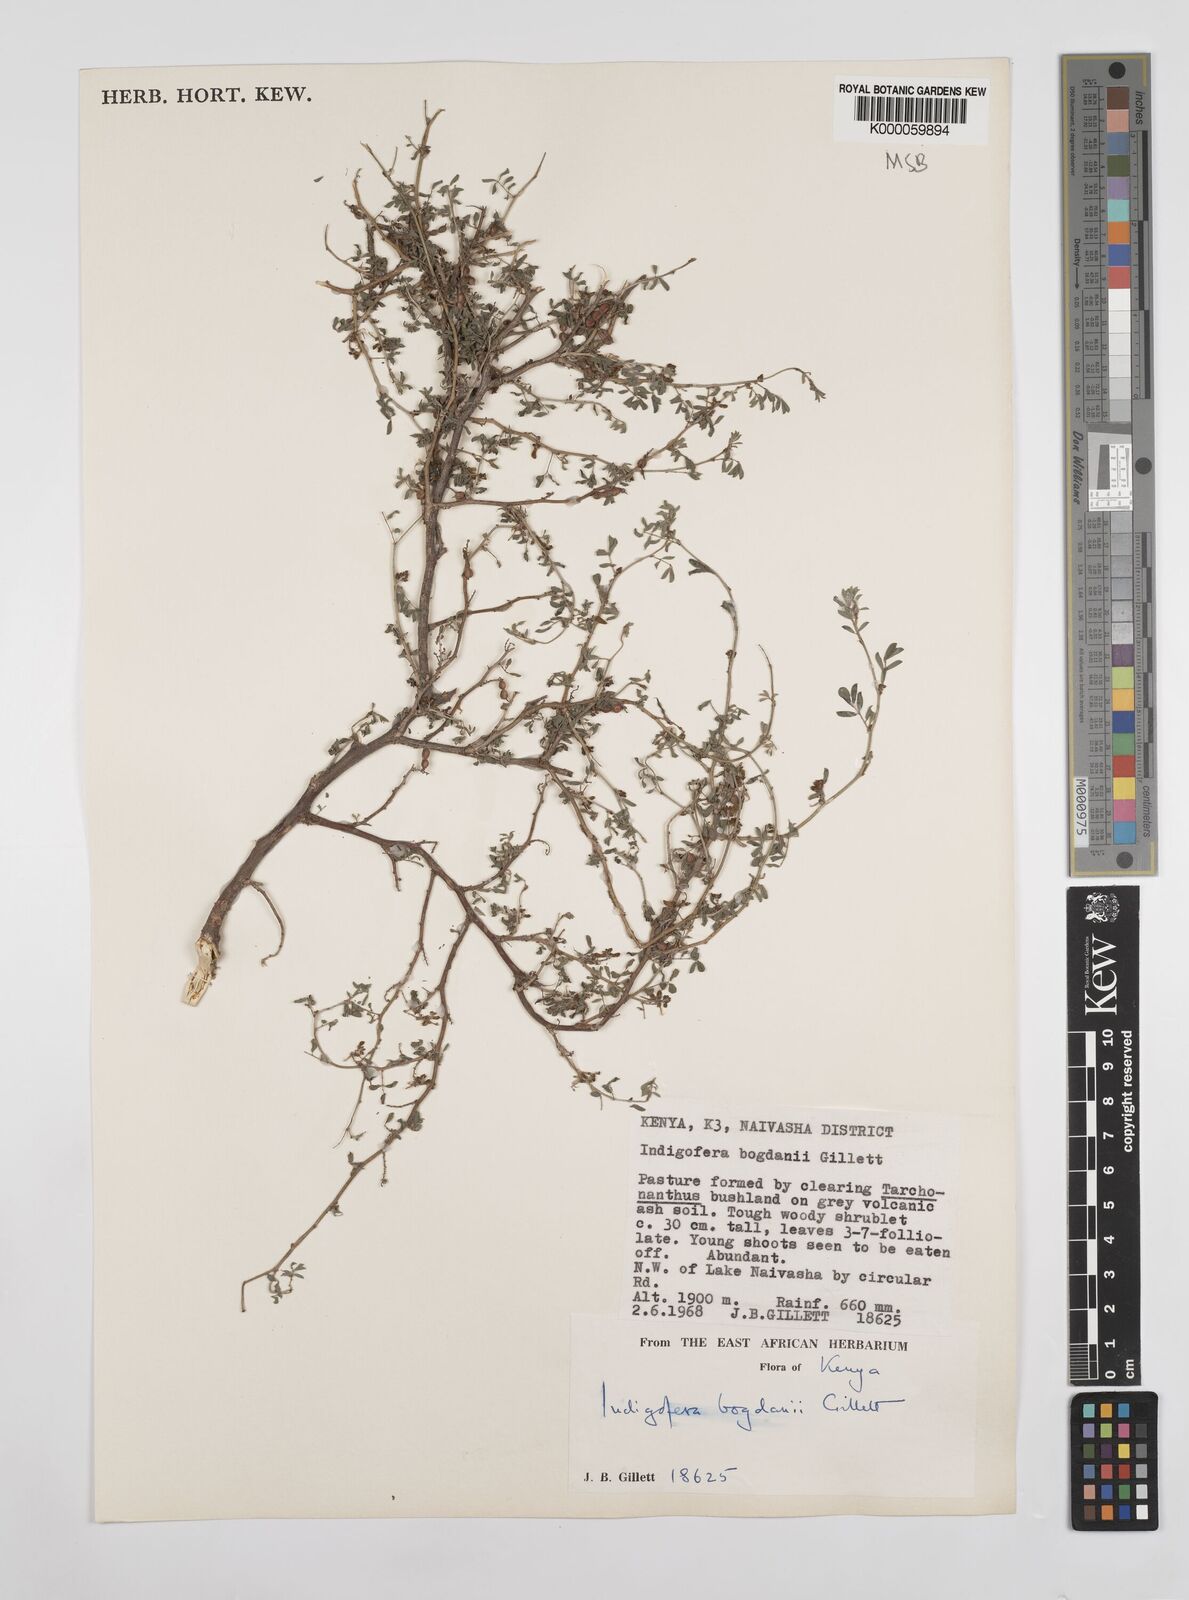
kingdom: Plantae
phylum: Tracheophyta
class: Magnoliopsida
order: Fabales
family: Fabaceae
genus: Indigofera
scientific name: Indigofera bogdanii
